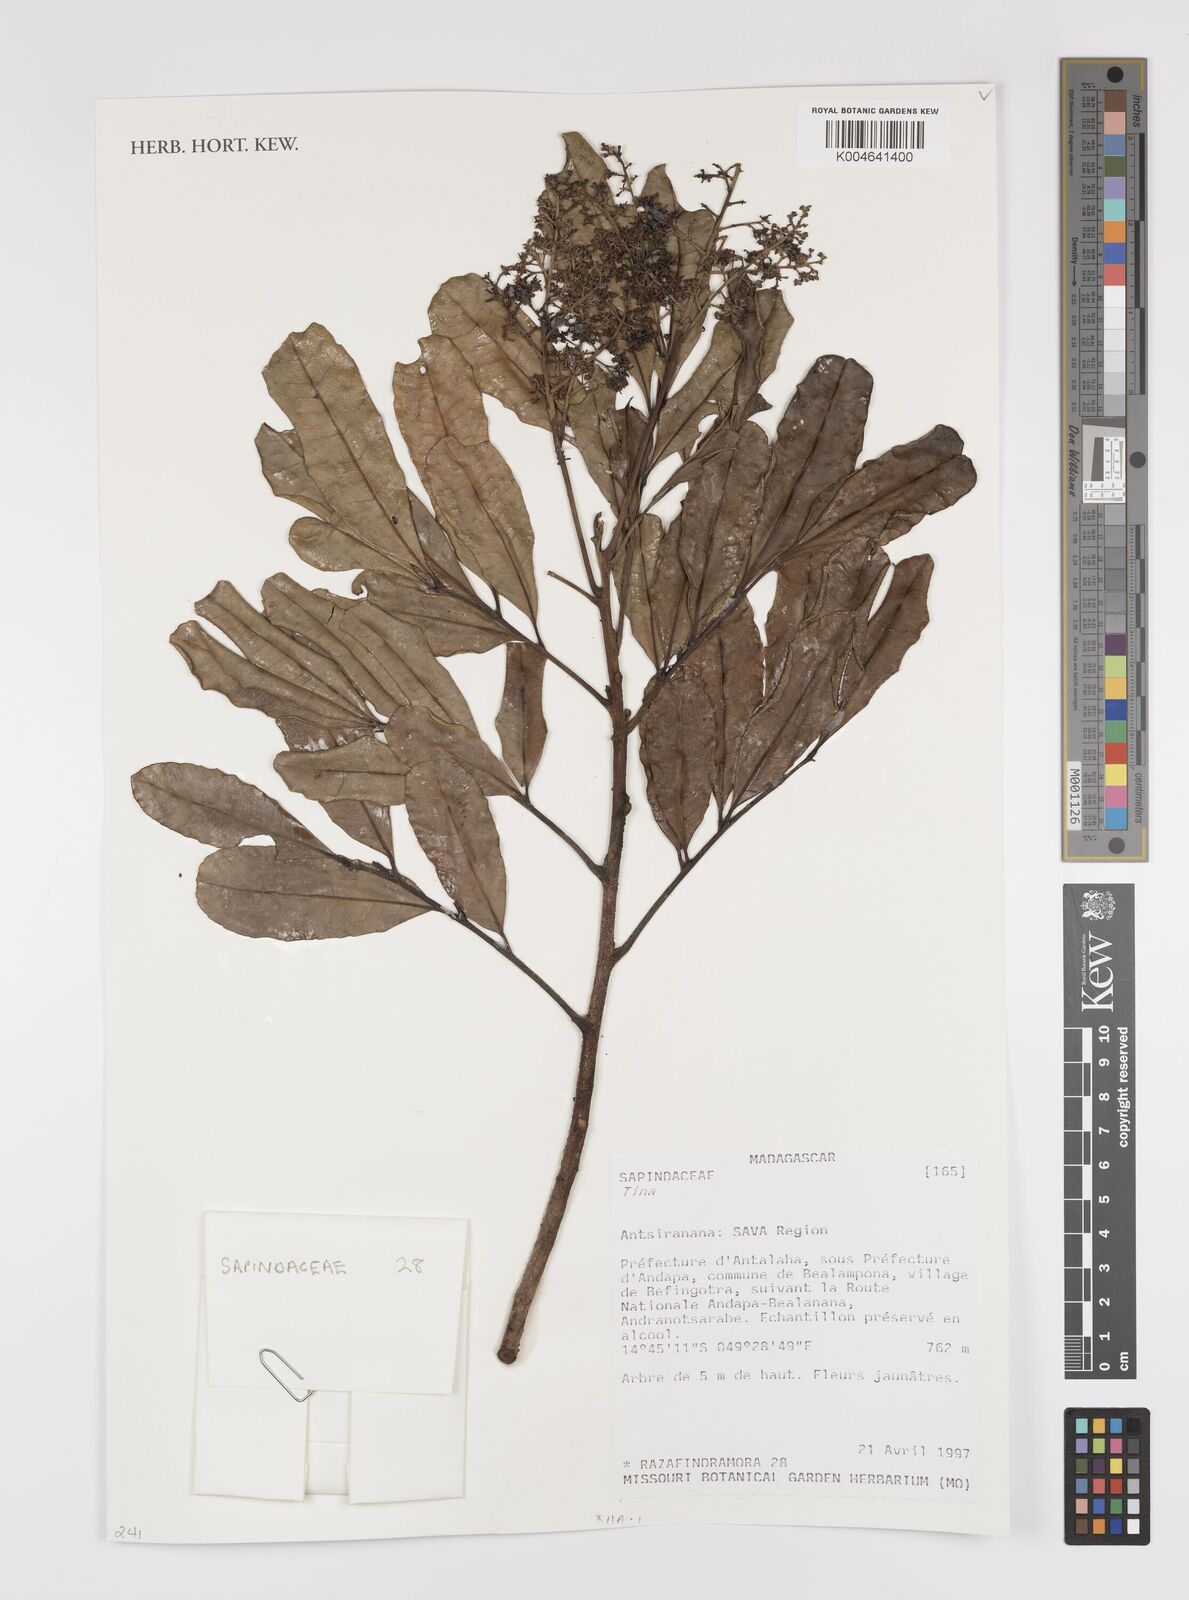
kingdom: Plantae
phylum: Tracheophyta
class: Magnoliopsida
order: Sapindales
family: Sapindaceae
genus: Tina
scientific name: Tina
